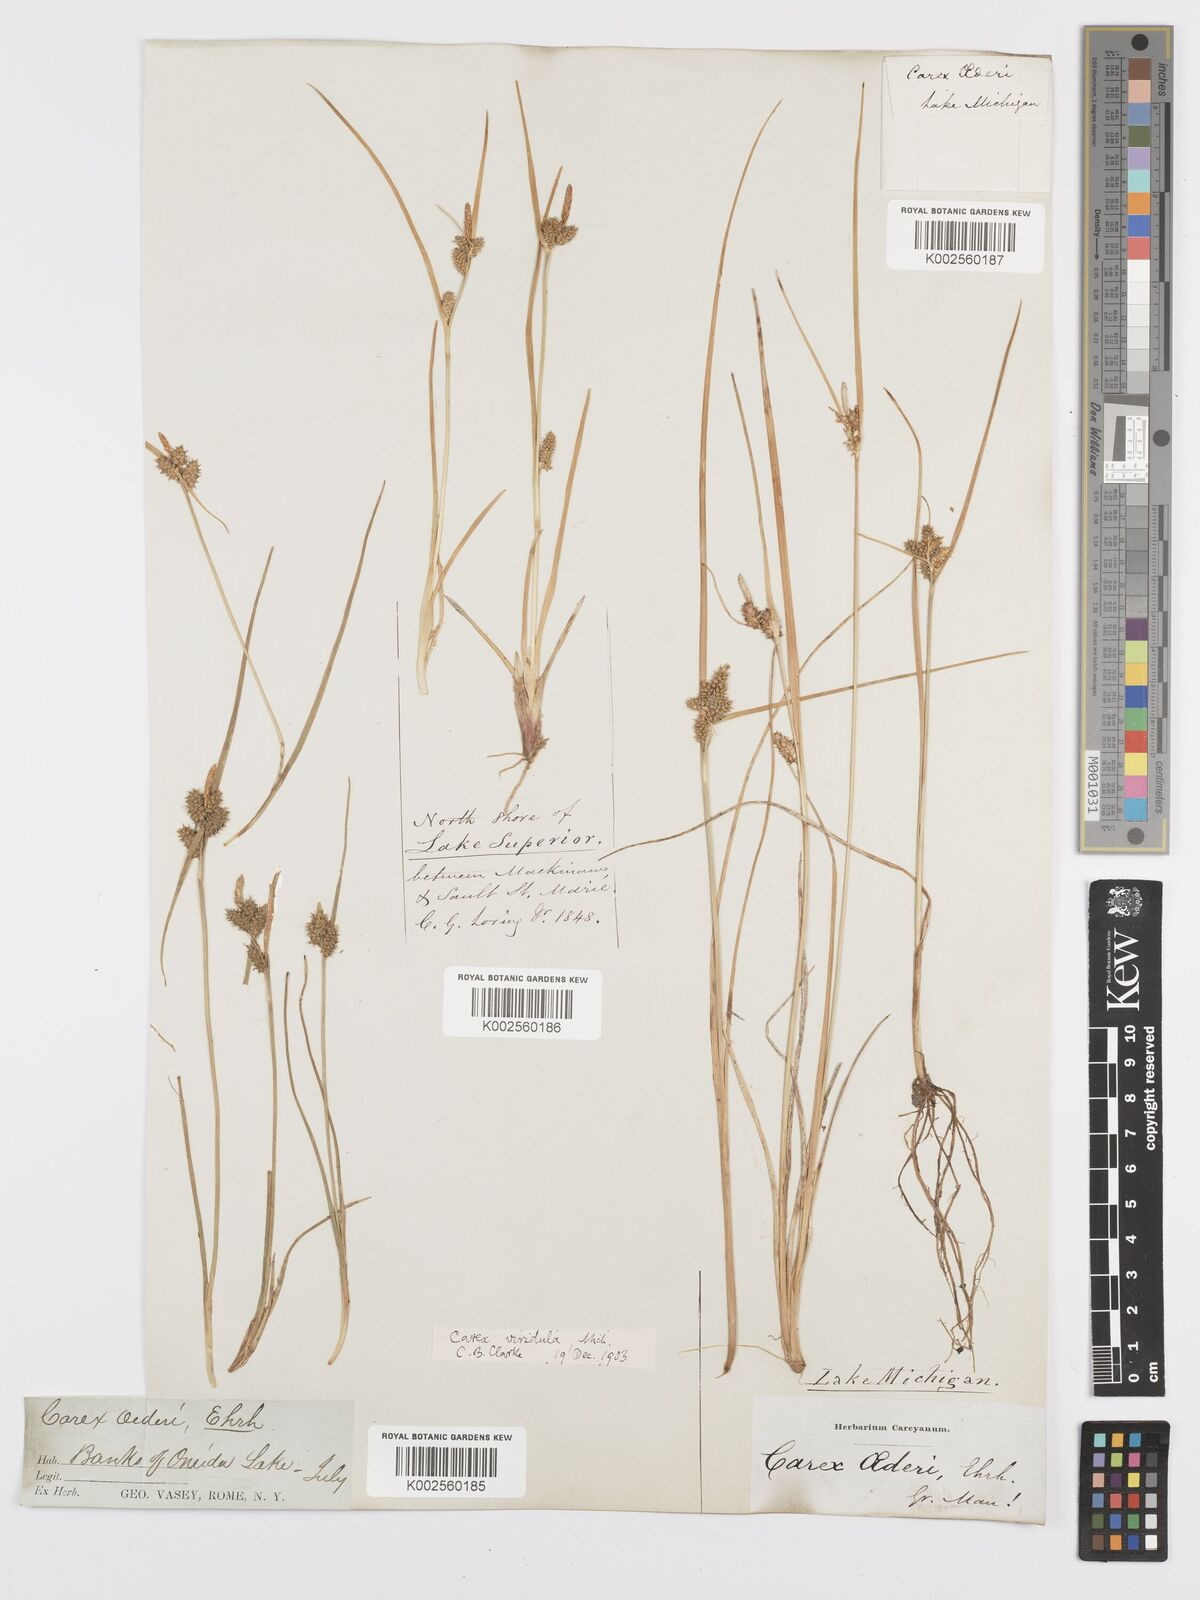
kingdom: Plantae
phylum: Tracheophyta
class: Liliopsida
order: Poales
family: Cyperaceae
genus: Carex
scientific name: Carex oederi
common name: Common & small-fruited yellow-sedge
